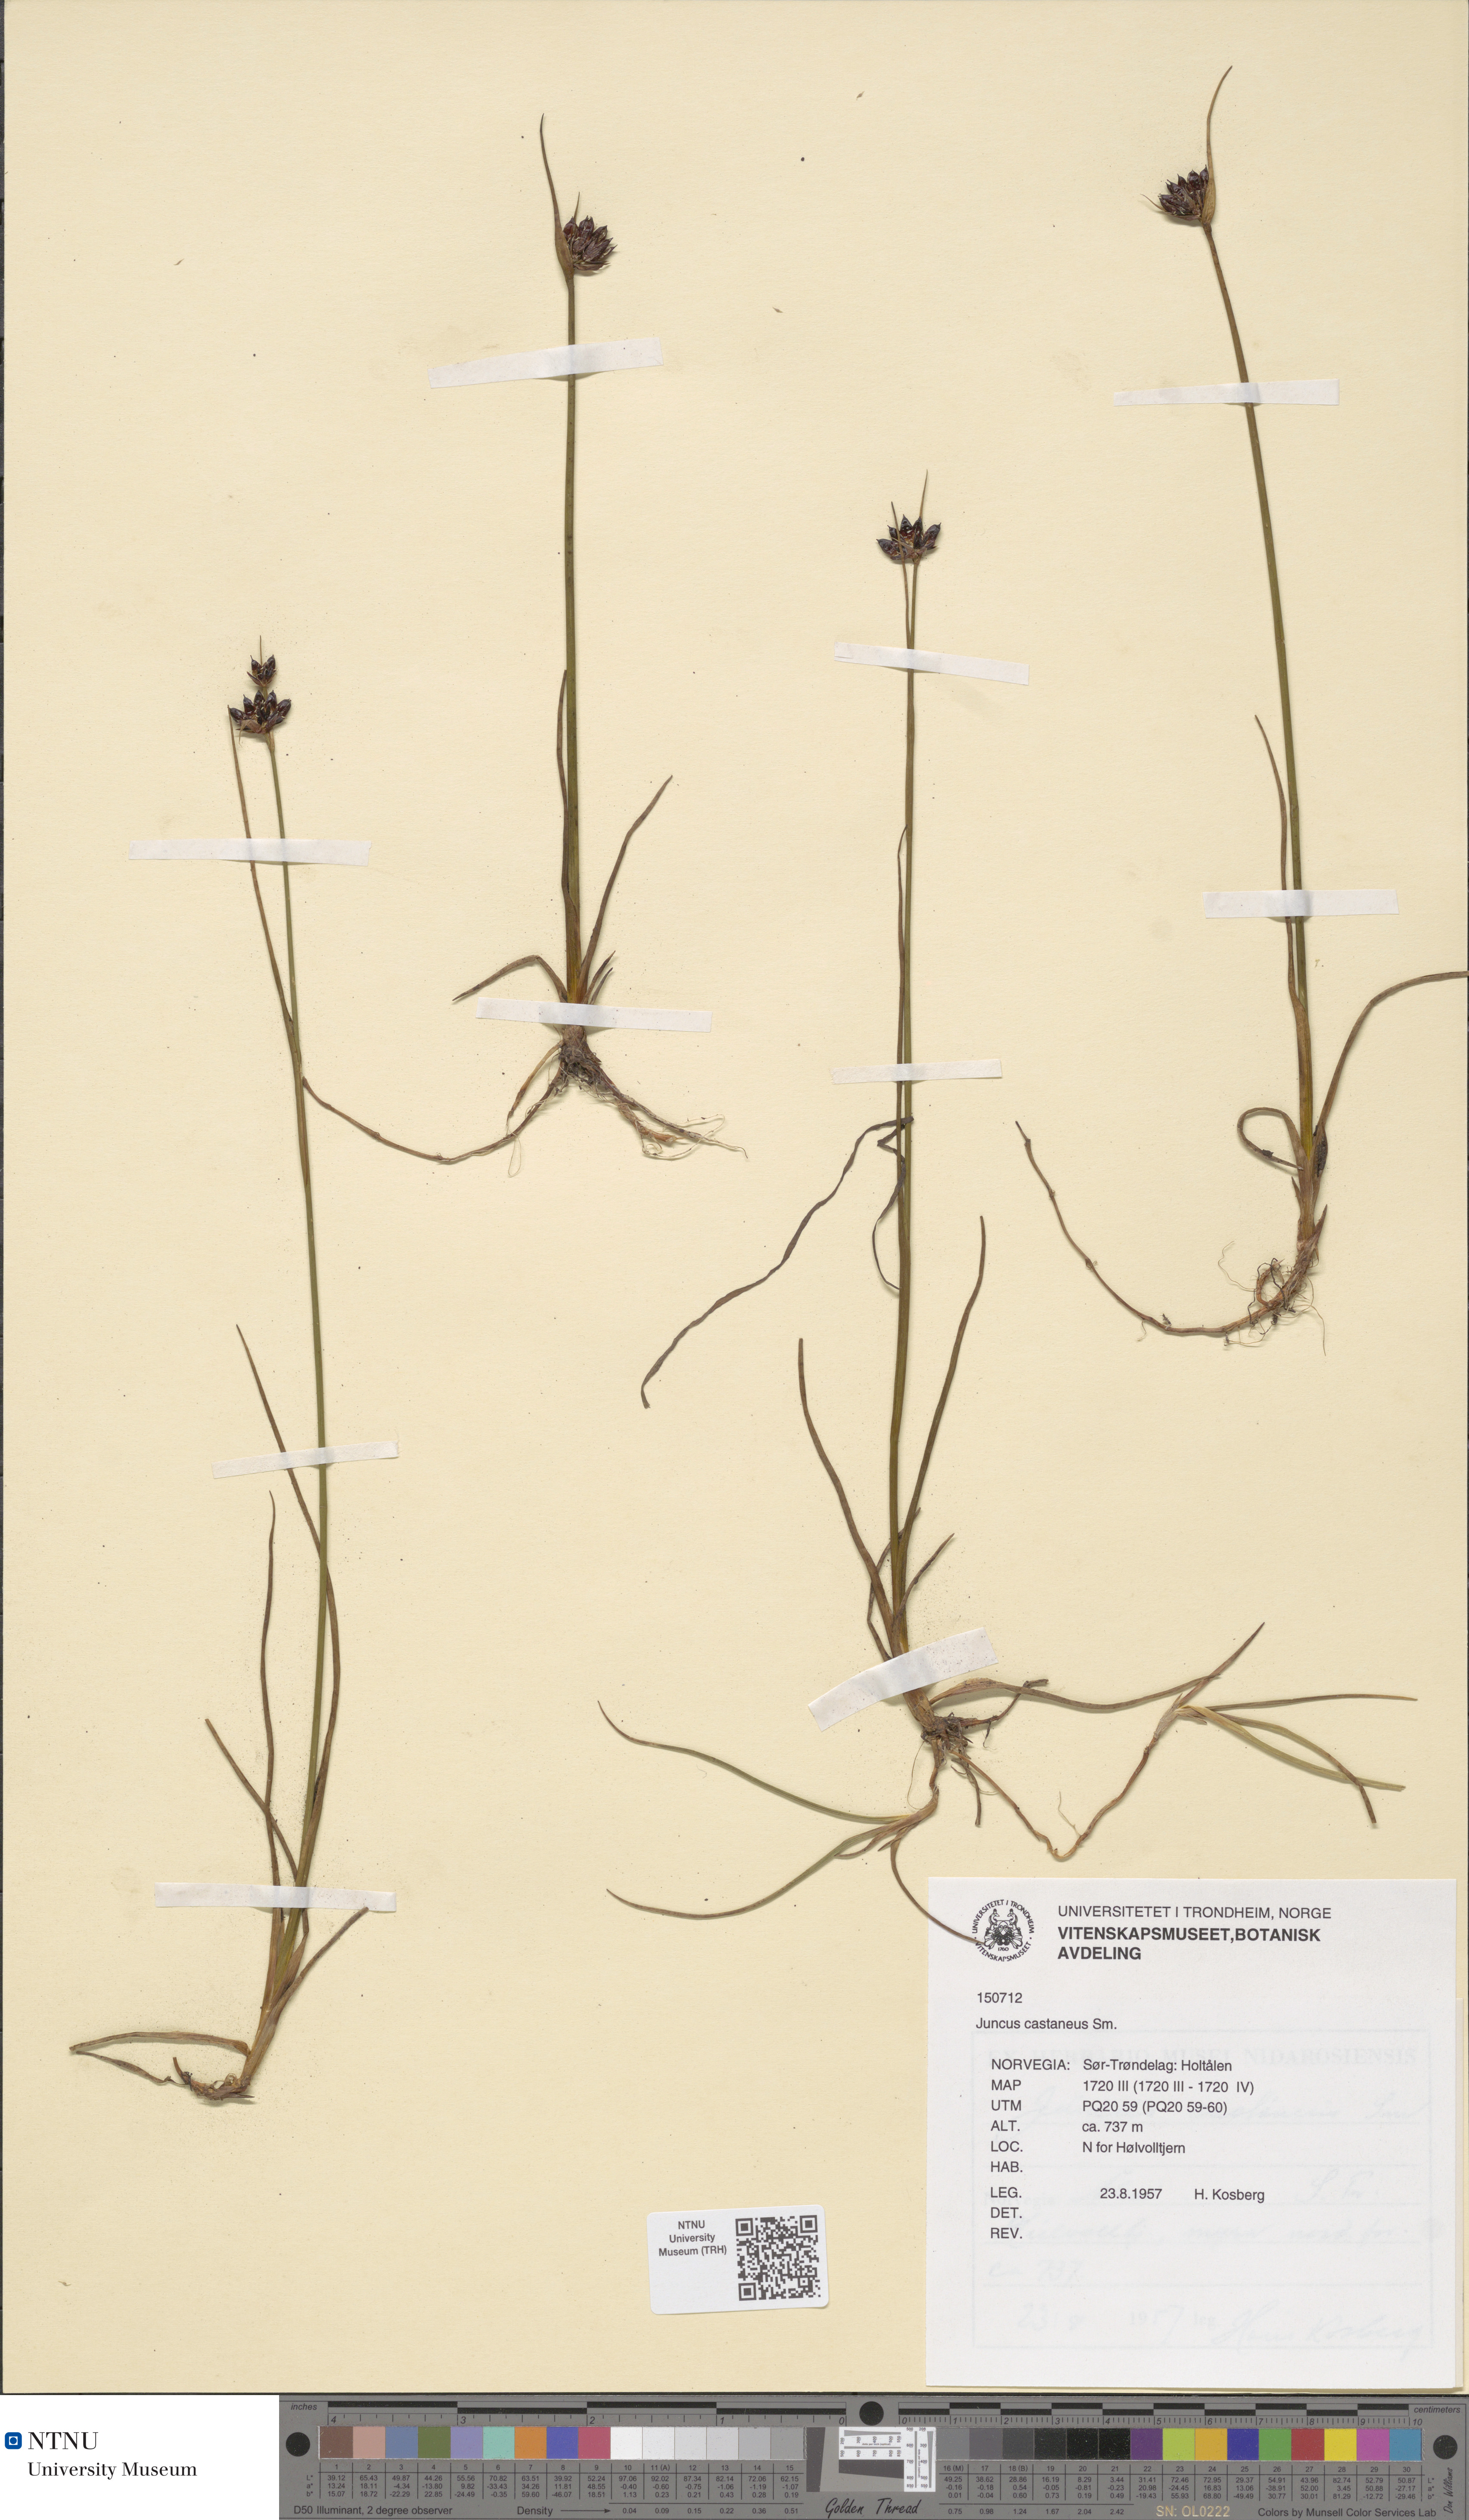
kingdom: Plantae
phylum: Tracheophyta
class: Liliopsida
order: Poales
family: Juncaceae
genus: Juncus
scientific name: Juncus castaneus
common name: Chestnut rush
